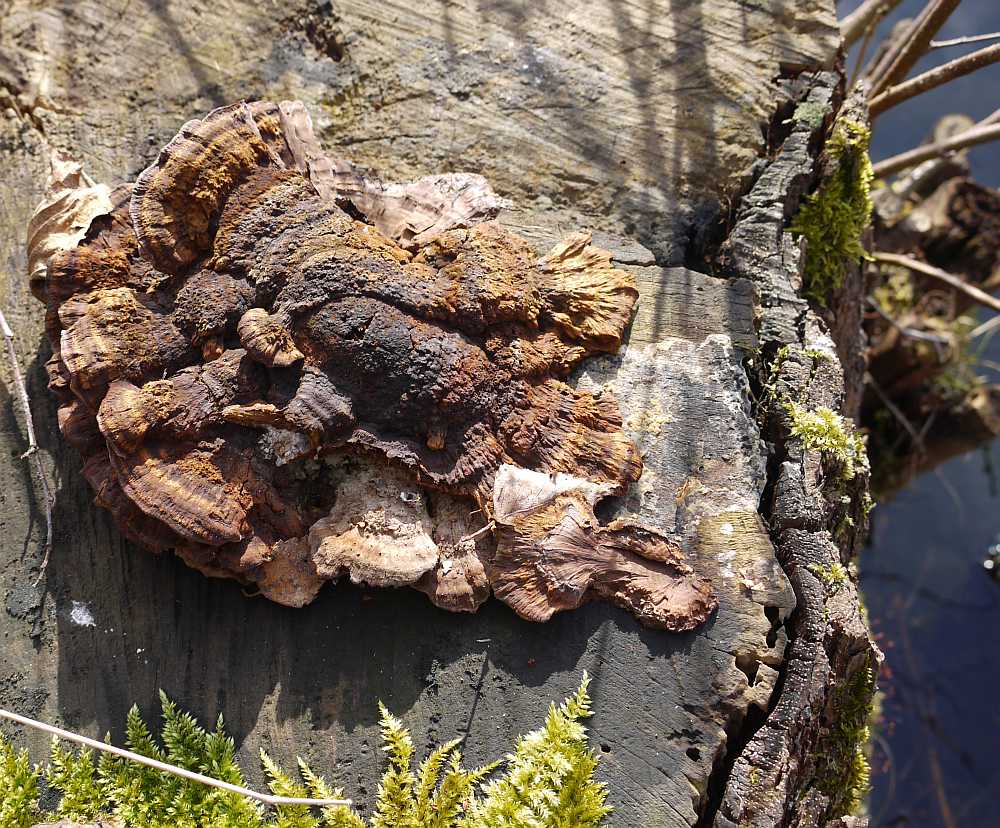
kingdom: Fungi
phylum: Basidiomycota
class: Agaricomycetes
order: Hymenochaetales
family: Hymenochaetaceae
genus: Xanthoporia
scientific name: Xanthoporia radiata
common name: elle-spejlporesvamp
